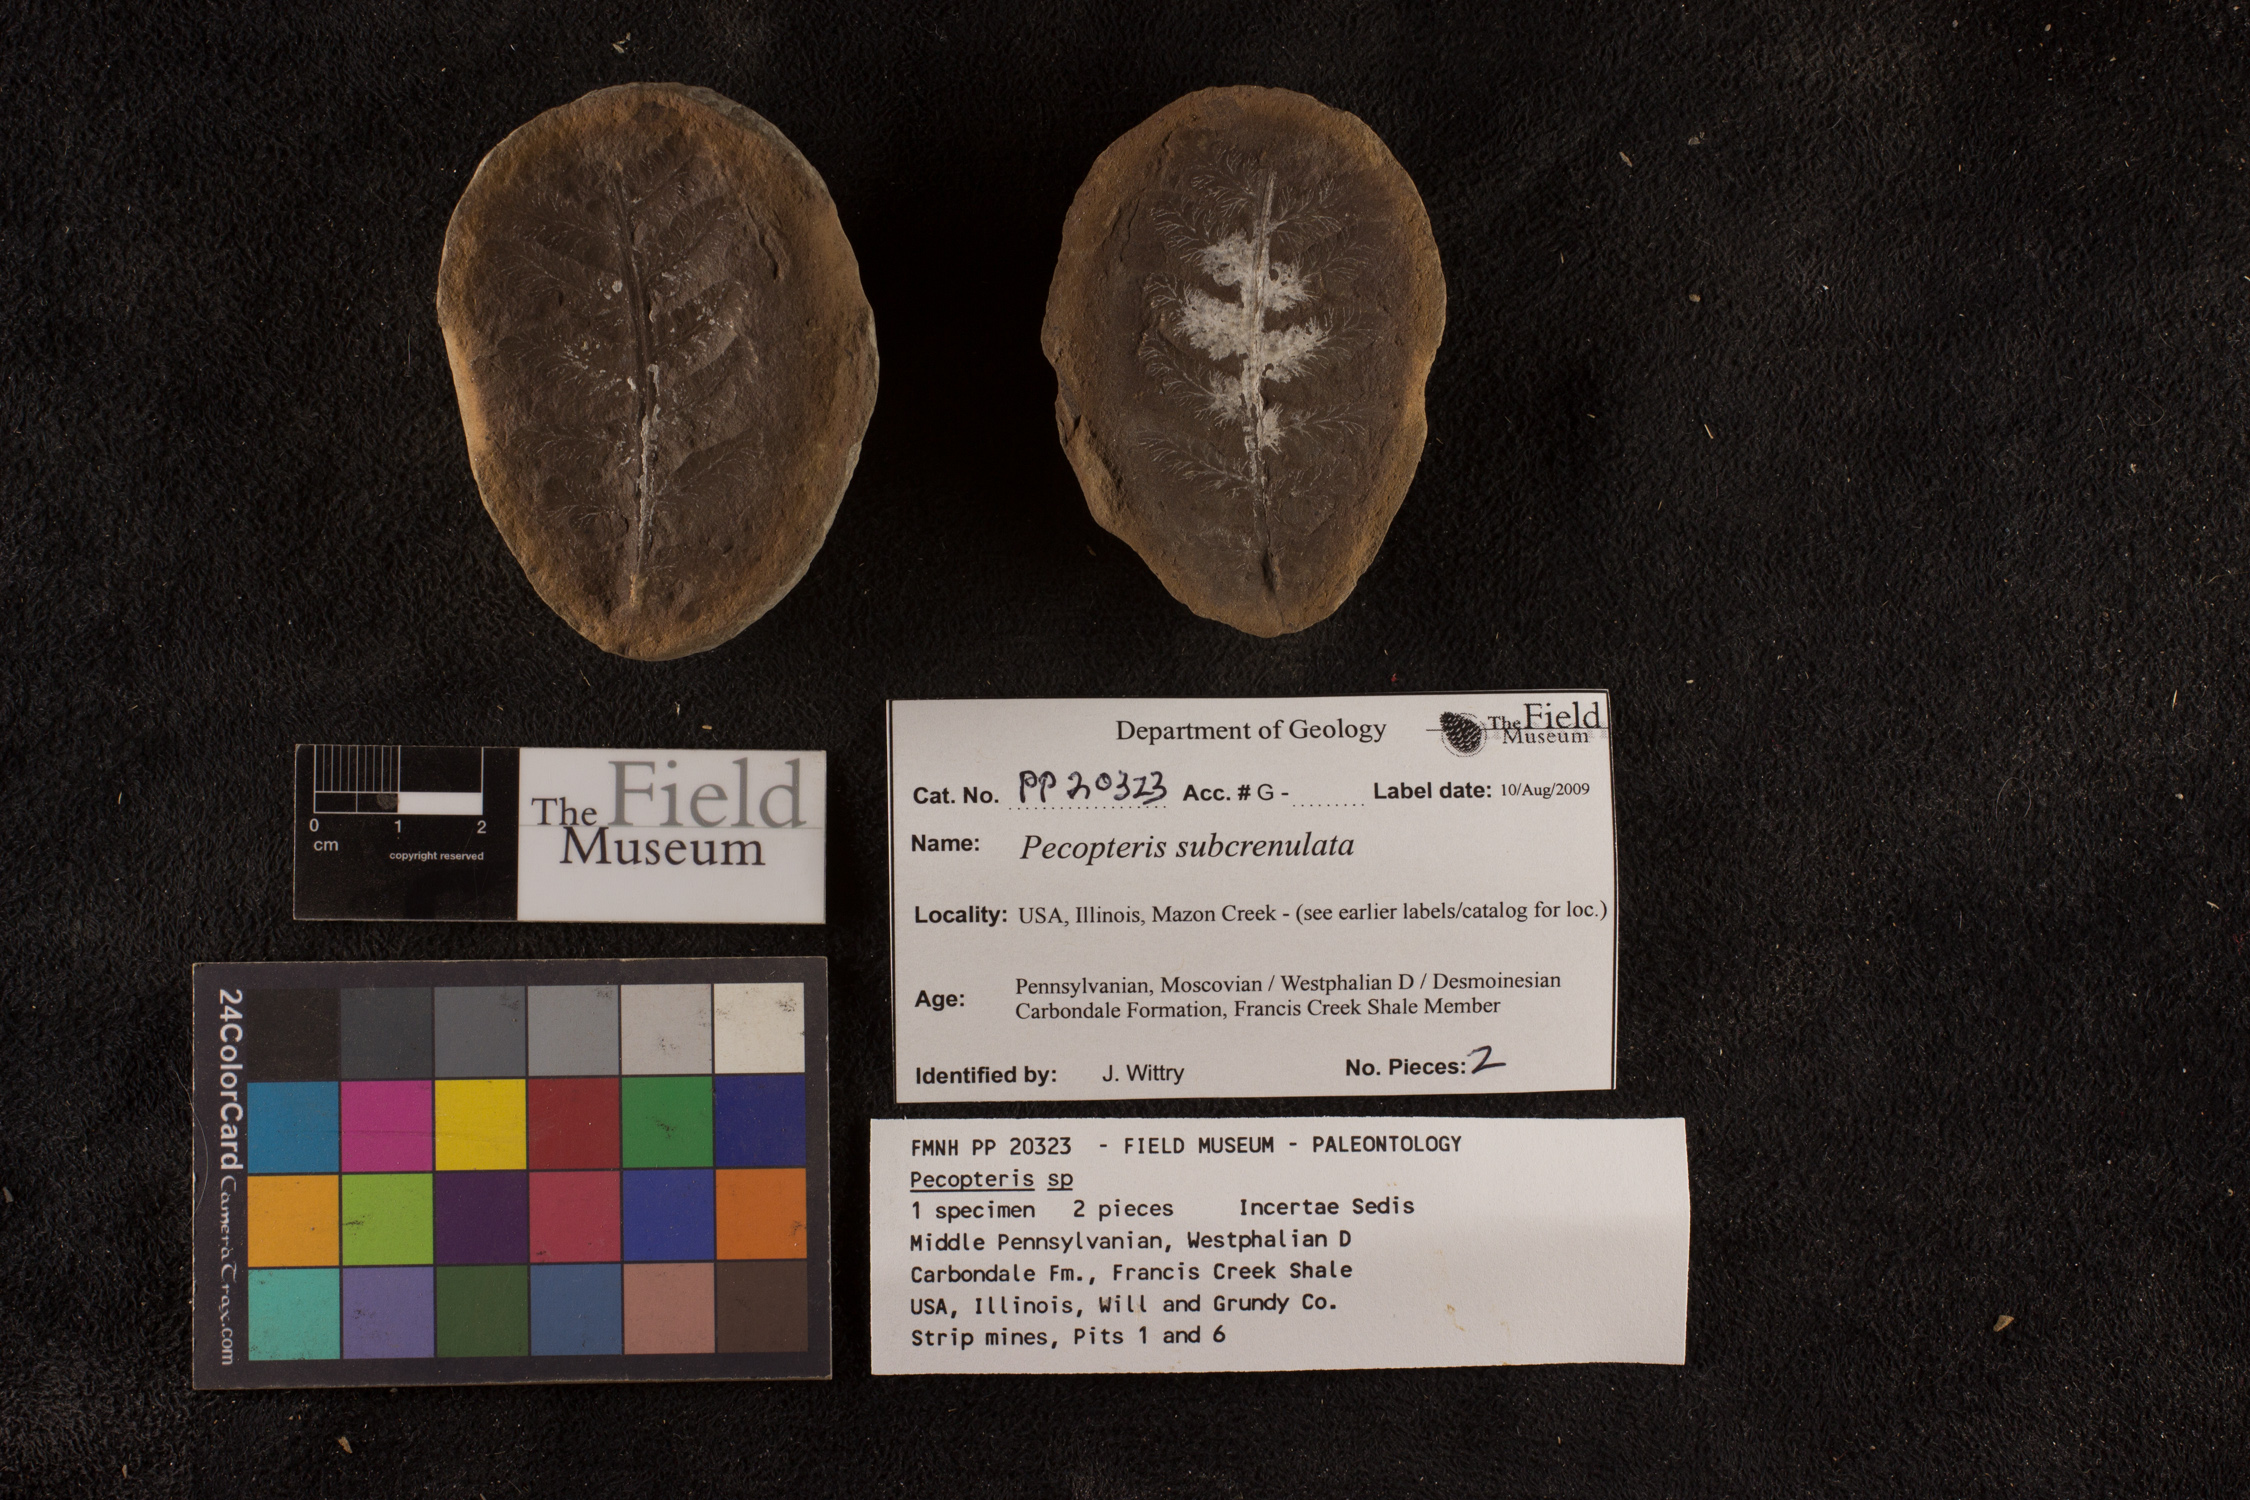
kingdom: Plantae
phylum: Tracheophyta
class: Polypodiopsida
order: Marattiales
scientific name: Marattiales
